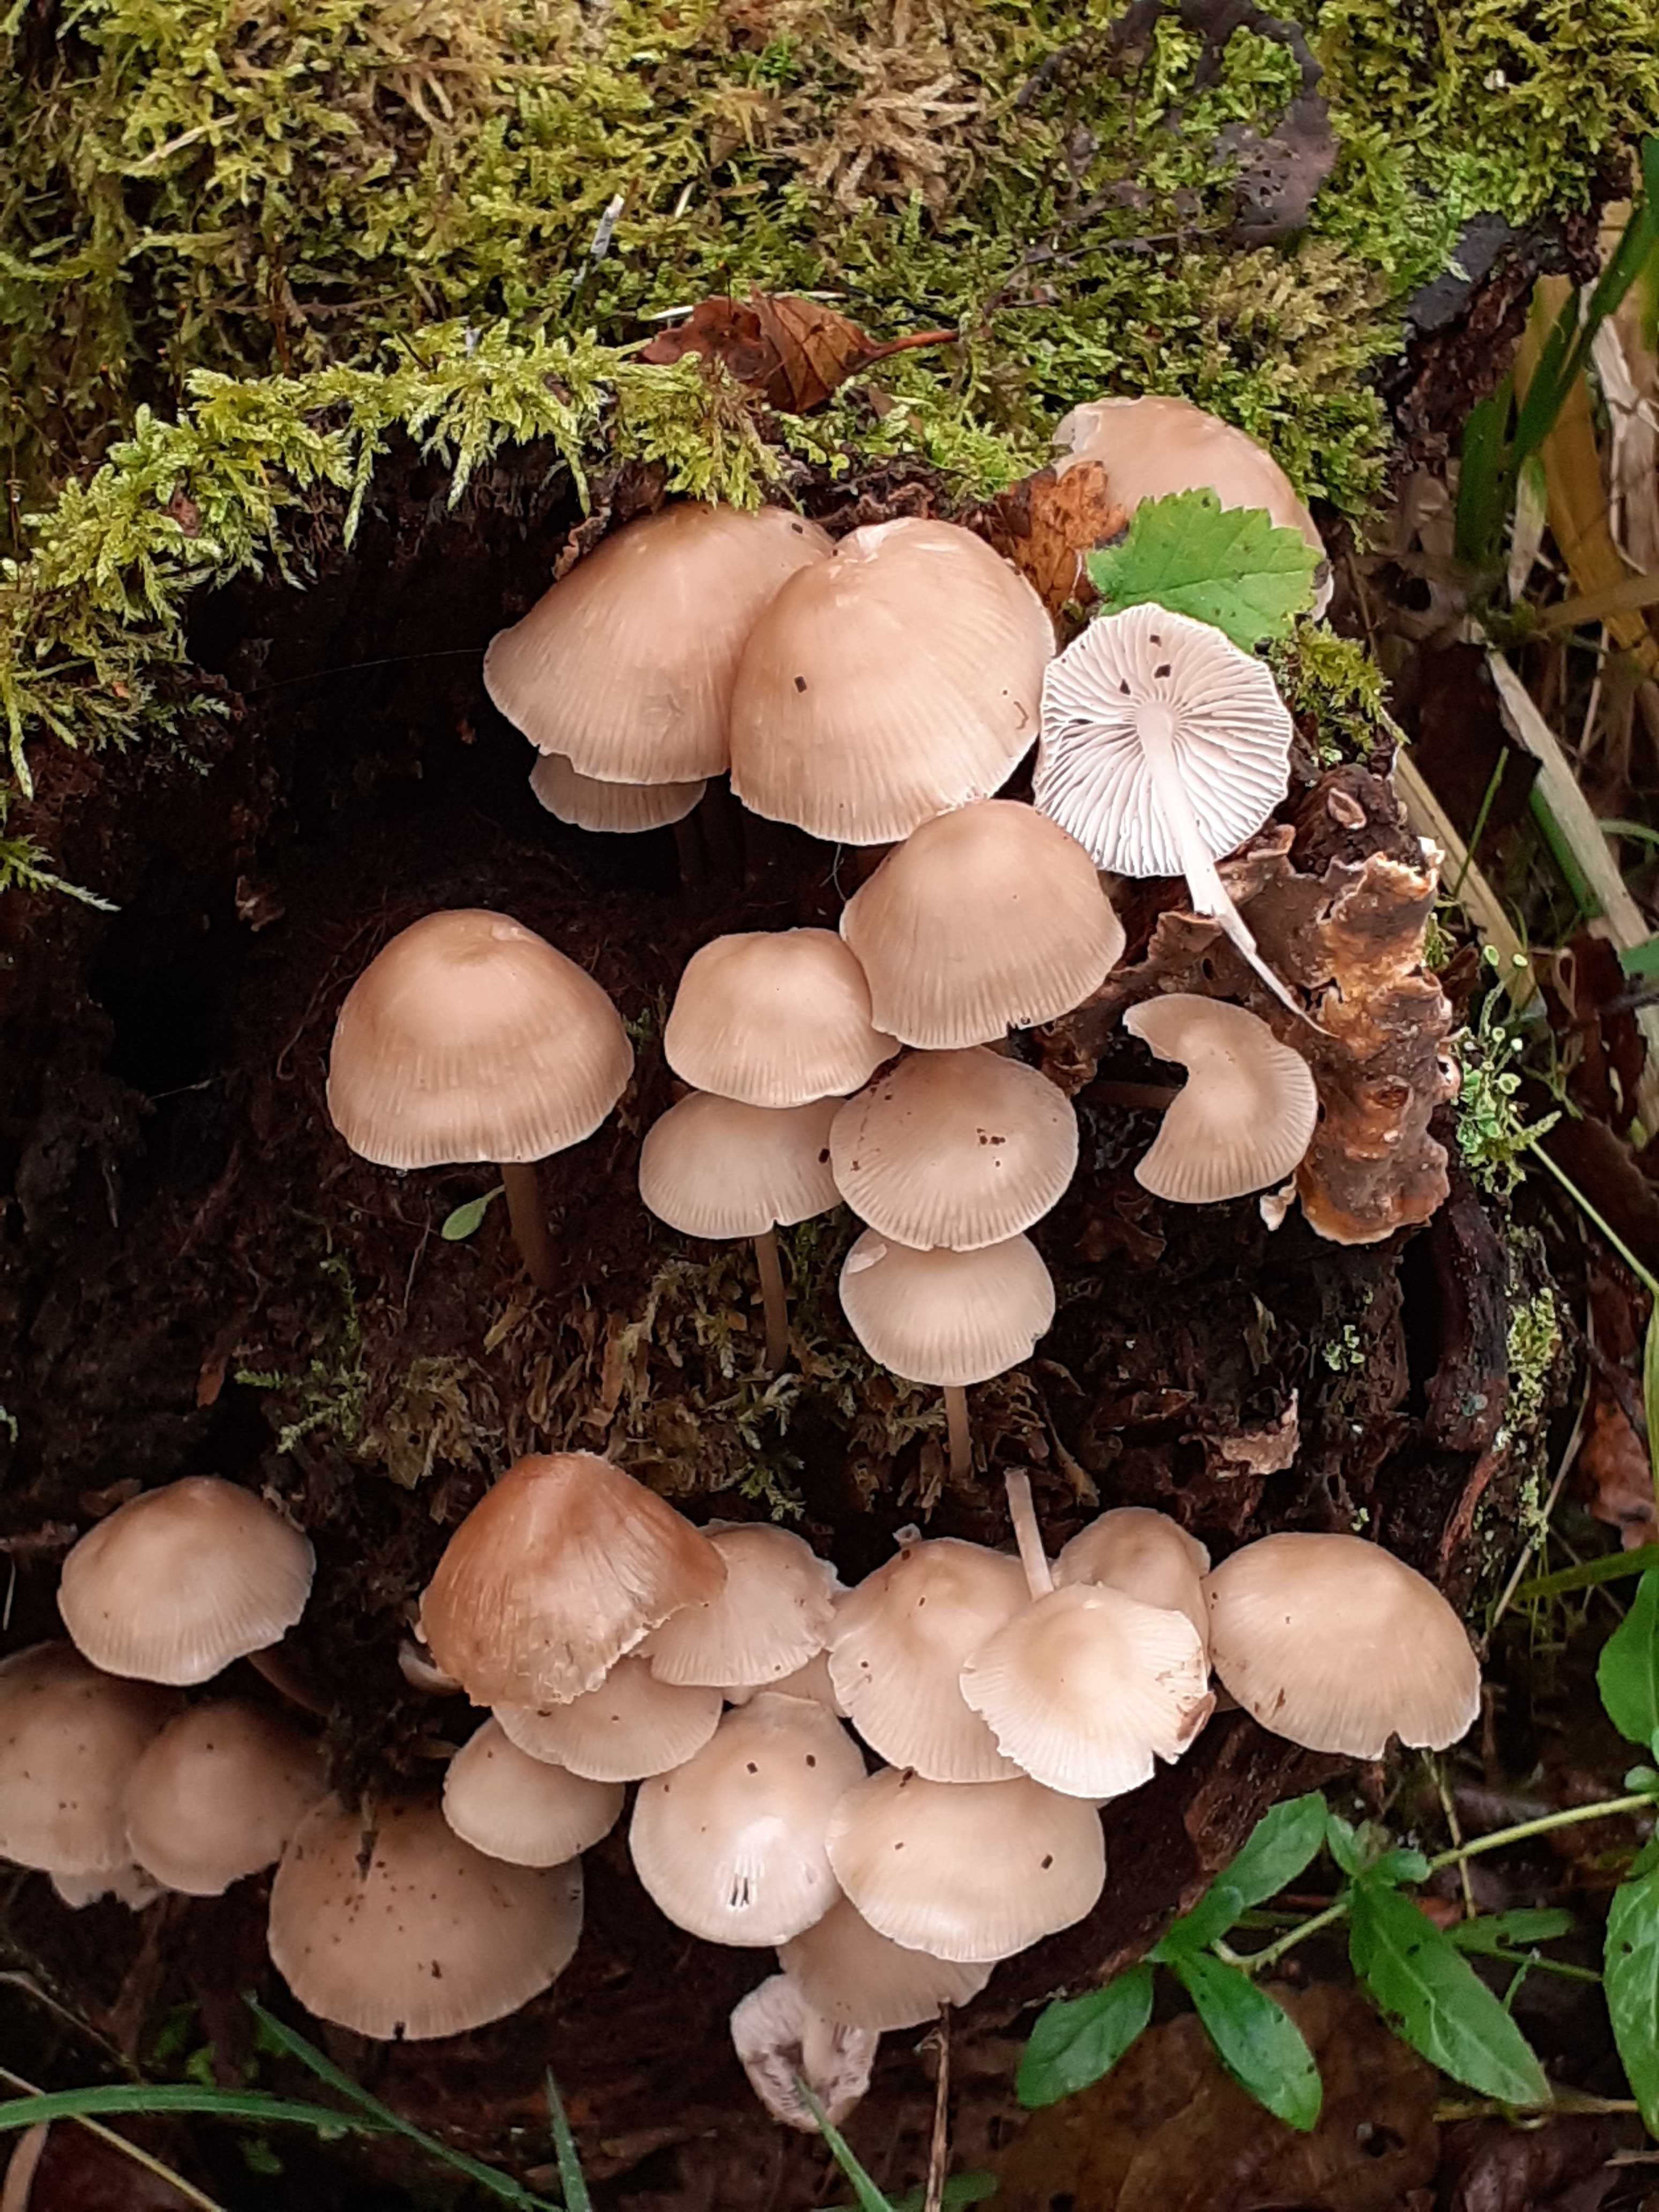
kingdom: Fungi
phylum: Basidiomycota
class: Agaricomycetes
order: Agaricales
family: Mycenaceae
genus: Mycena
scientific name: Mycena galericulata
